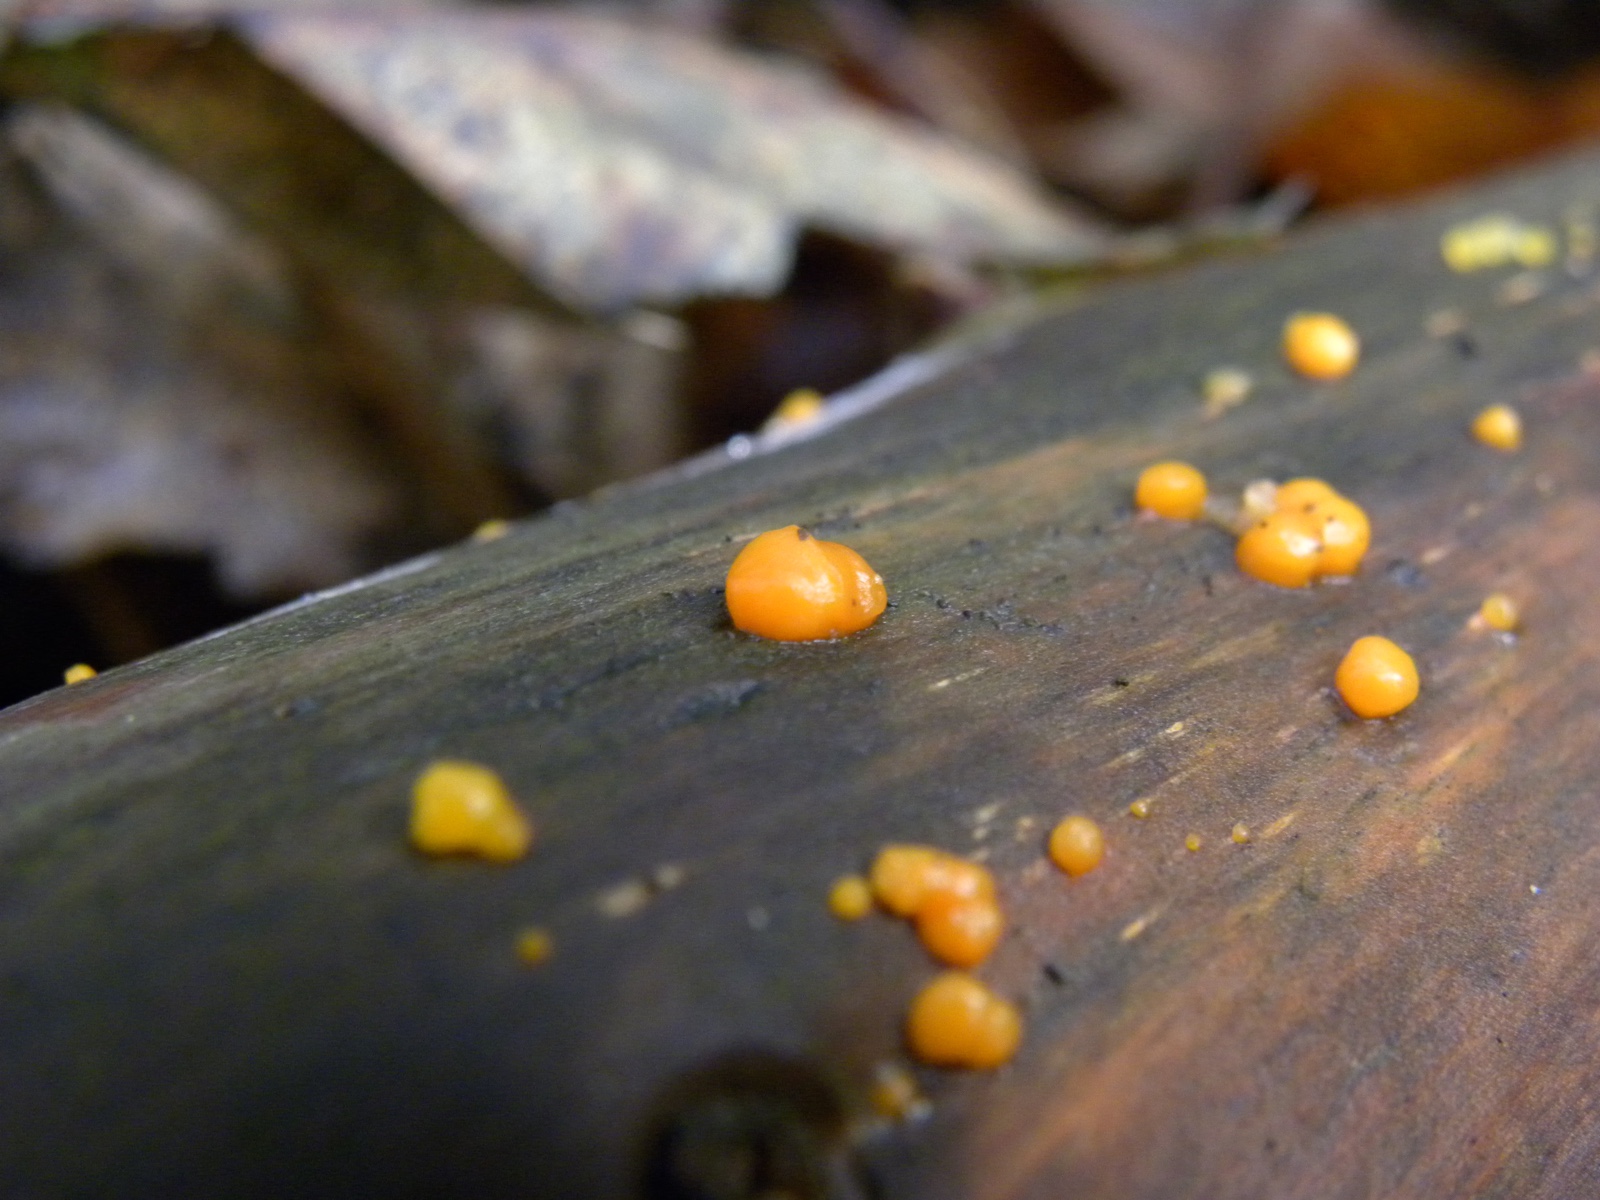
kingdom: Fungi
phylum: Basidiomycota
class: Dacrymycetes
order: Dacrymycetales
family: Dacrymycetaceae
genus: Dacrymyces
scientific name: Dacrymyces stillatus
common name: almindelig tåresvamp
